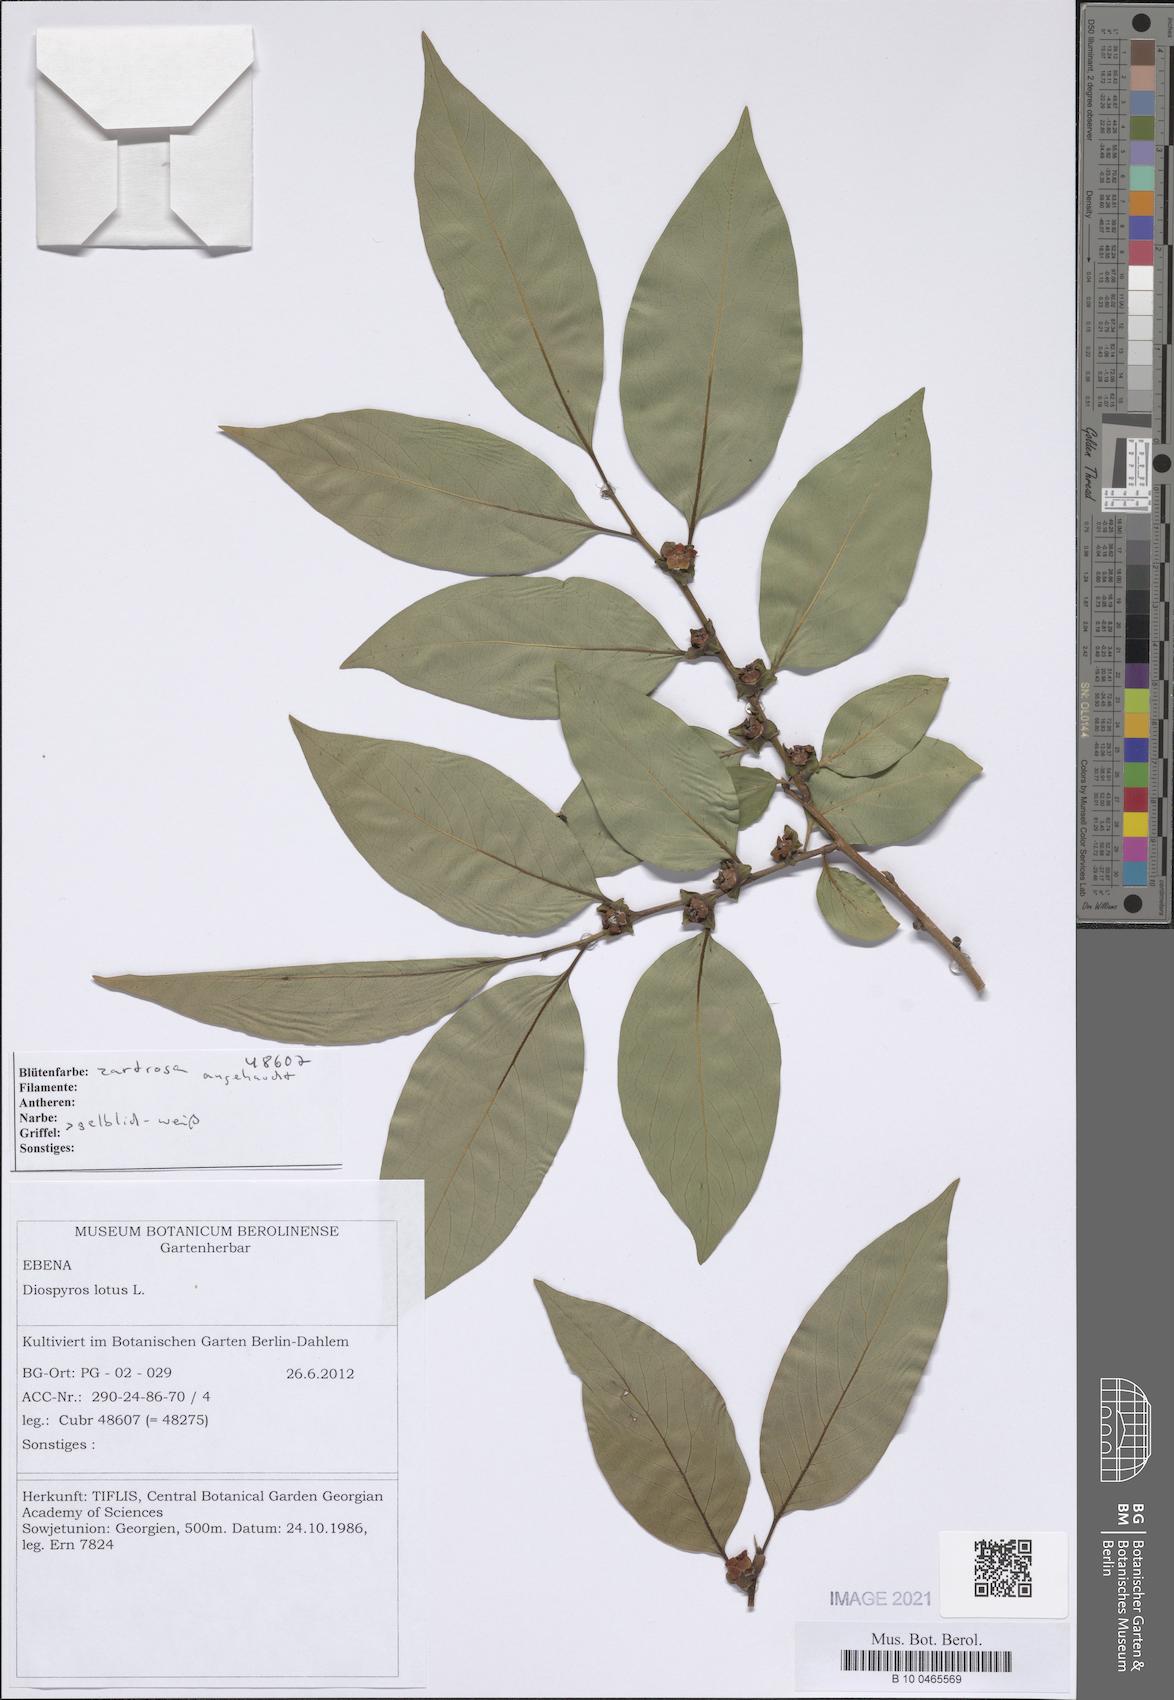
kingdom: Plantae
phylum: Tracheophyta
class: Magnoliopsida
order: Ericales
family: Ebenaceae
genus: Diospyros
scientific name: Diospyros lotus
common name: Date-plum
